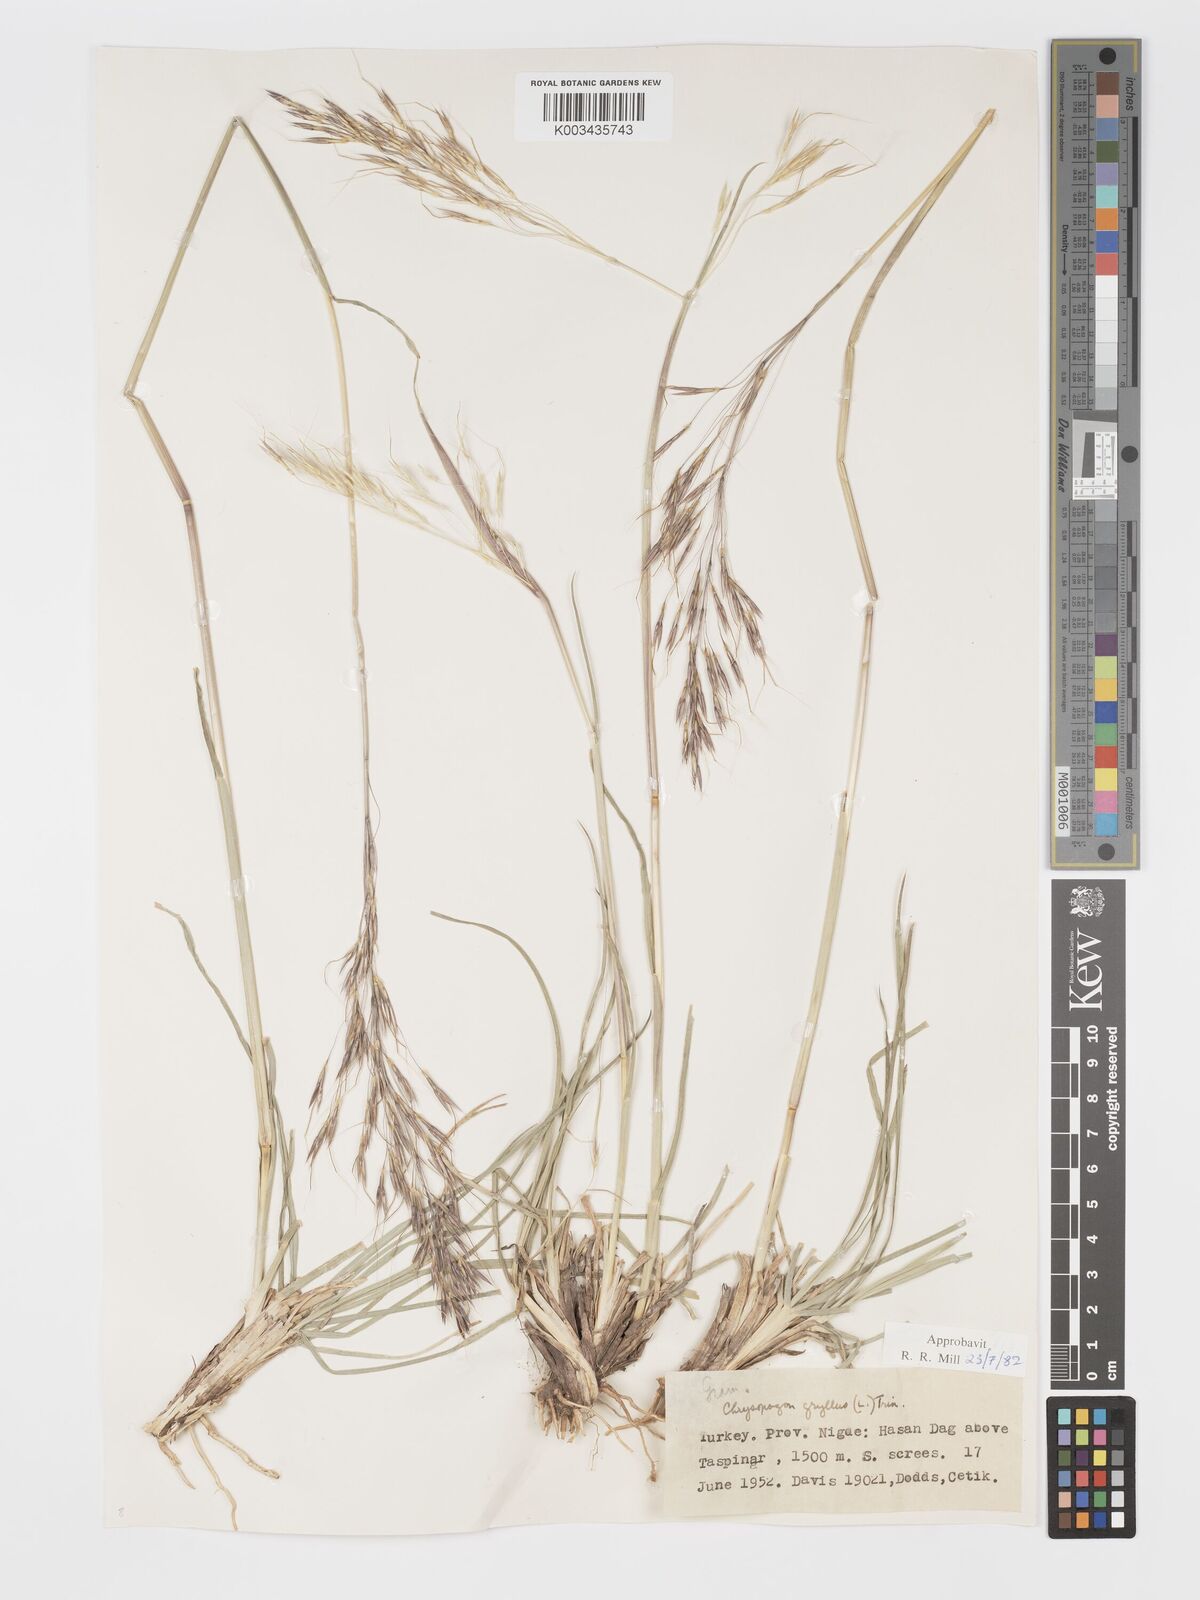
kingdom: Plantae
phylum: Tracheophyta
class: Liliopsida
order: Poales
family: Poaceae
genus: Chrysopogon
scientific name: Chrysopogon gryllus
